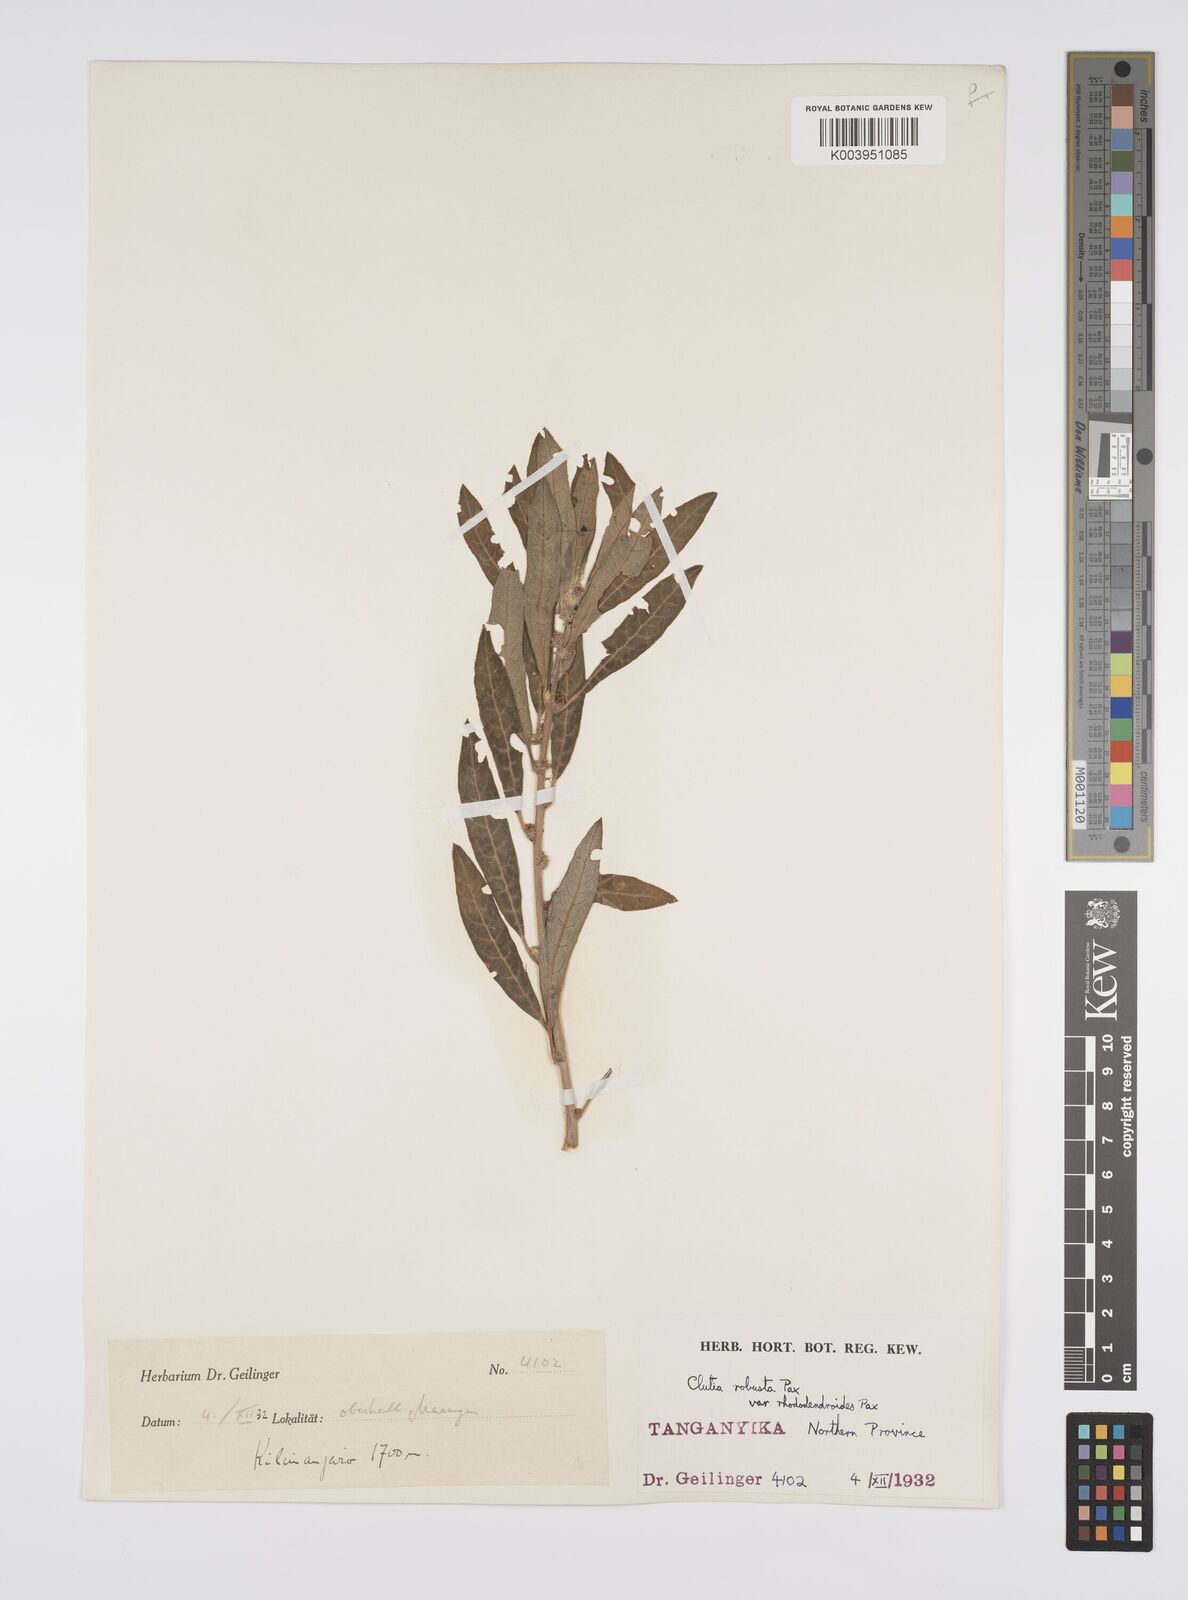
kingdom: Plantae
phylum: Tracheophyta
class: Magnoliopsida
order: Malpighiales
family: Peraceae
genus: Clutia
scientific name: Clutia kilimandscharica
